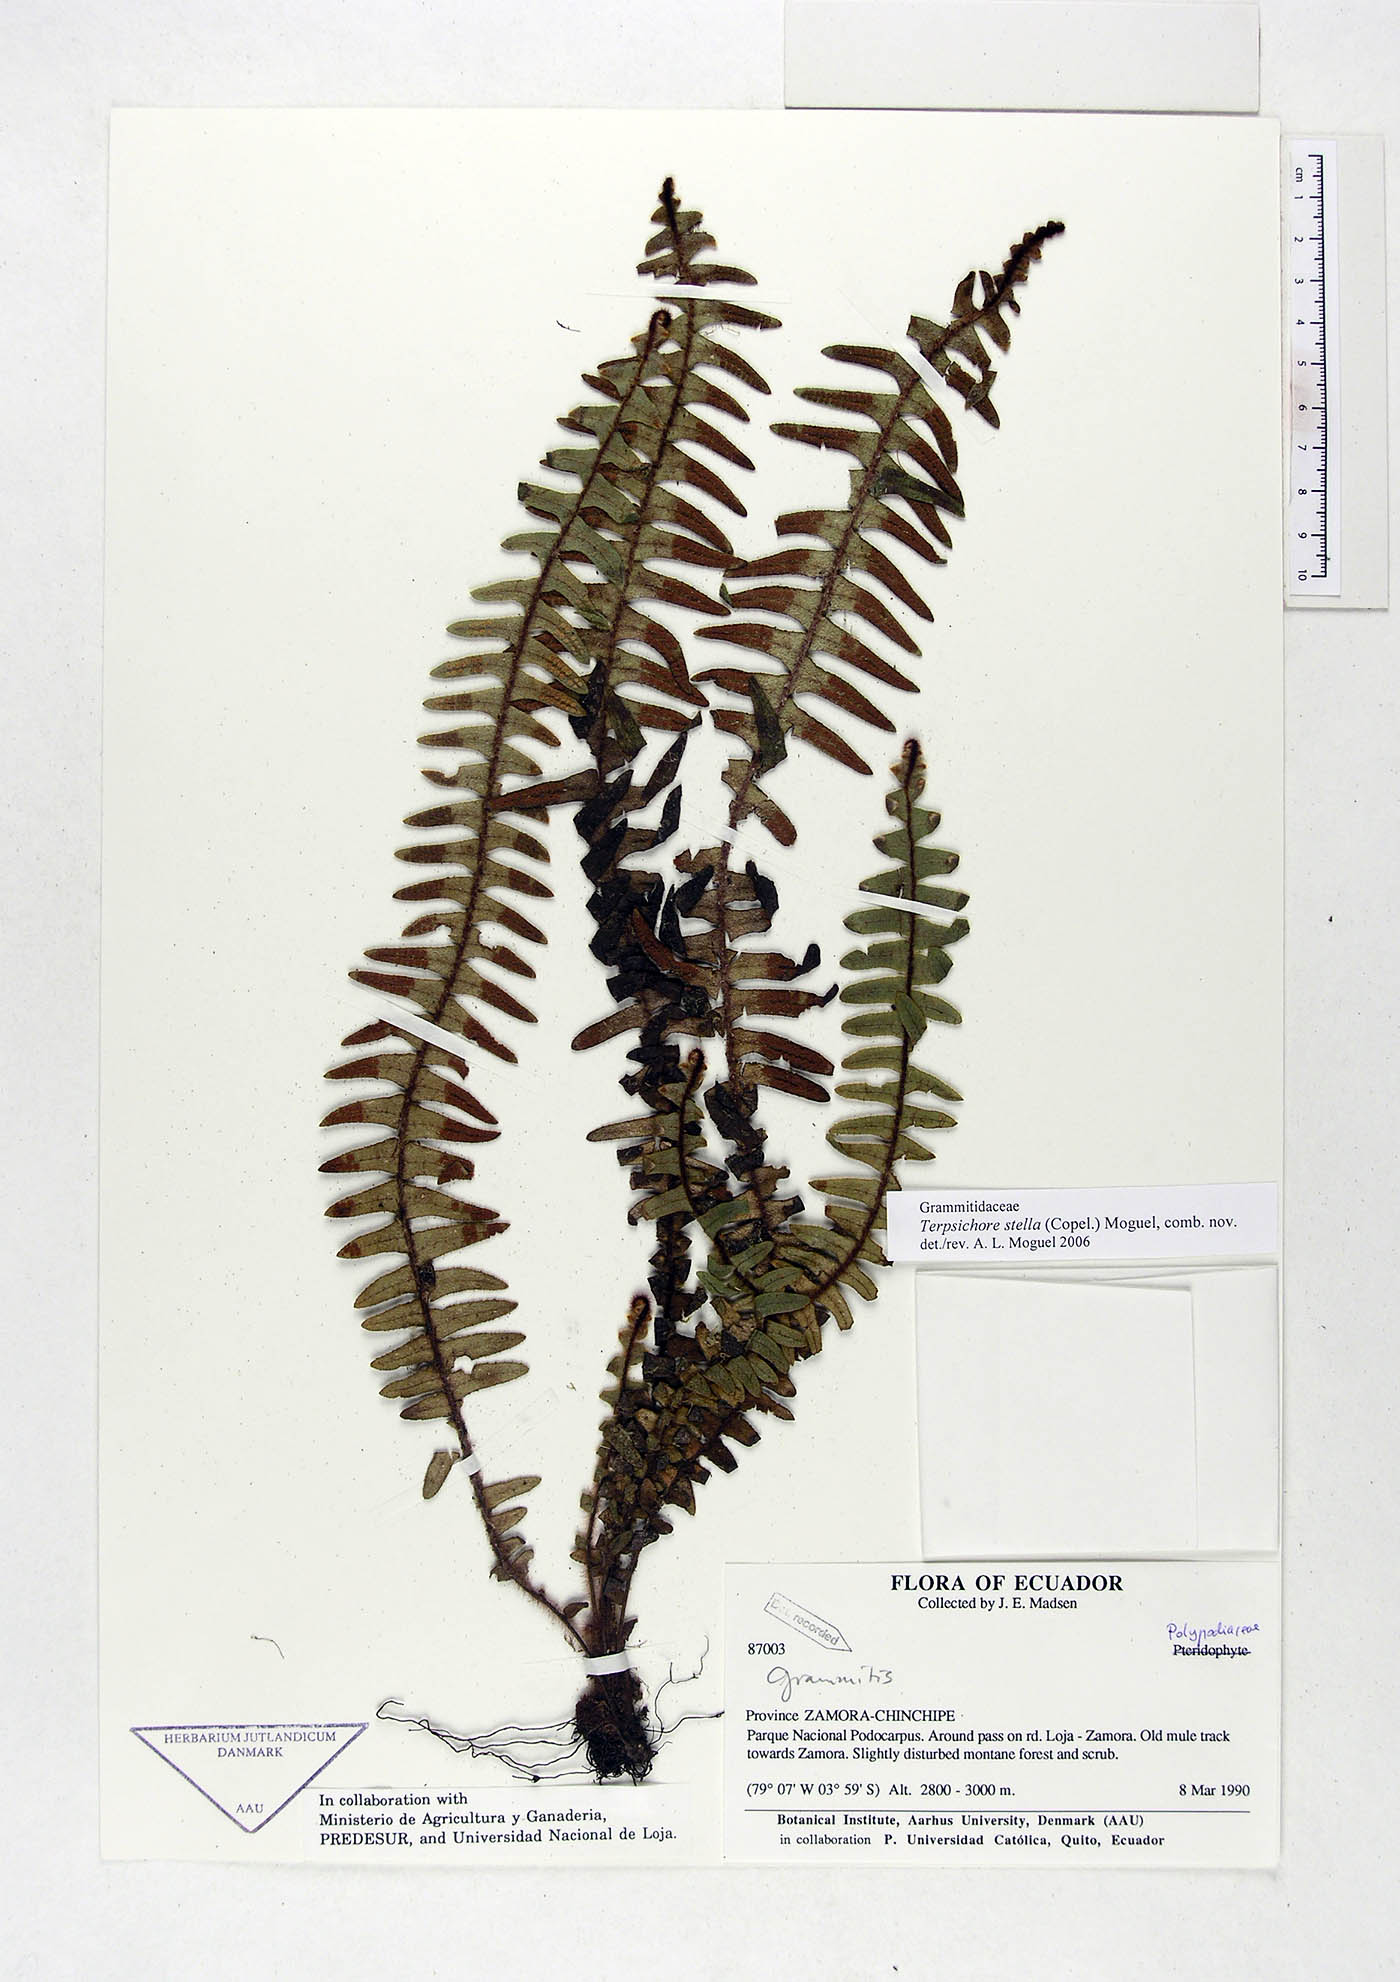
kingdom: Plantae
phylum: Tracheophyta
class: Polypodiopsida
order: Polypodiales
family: Polypodiaceae
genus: Alansmia
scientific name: Alansmia stella
